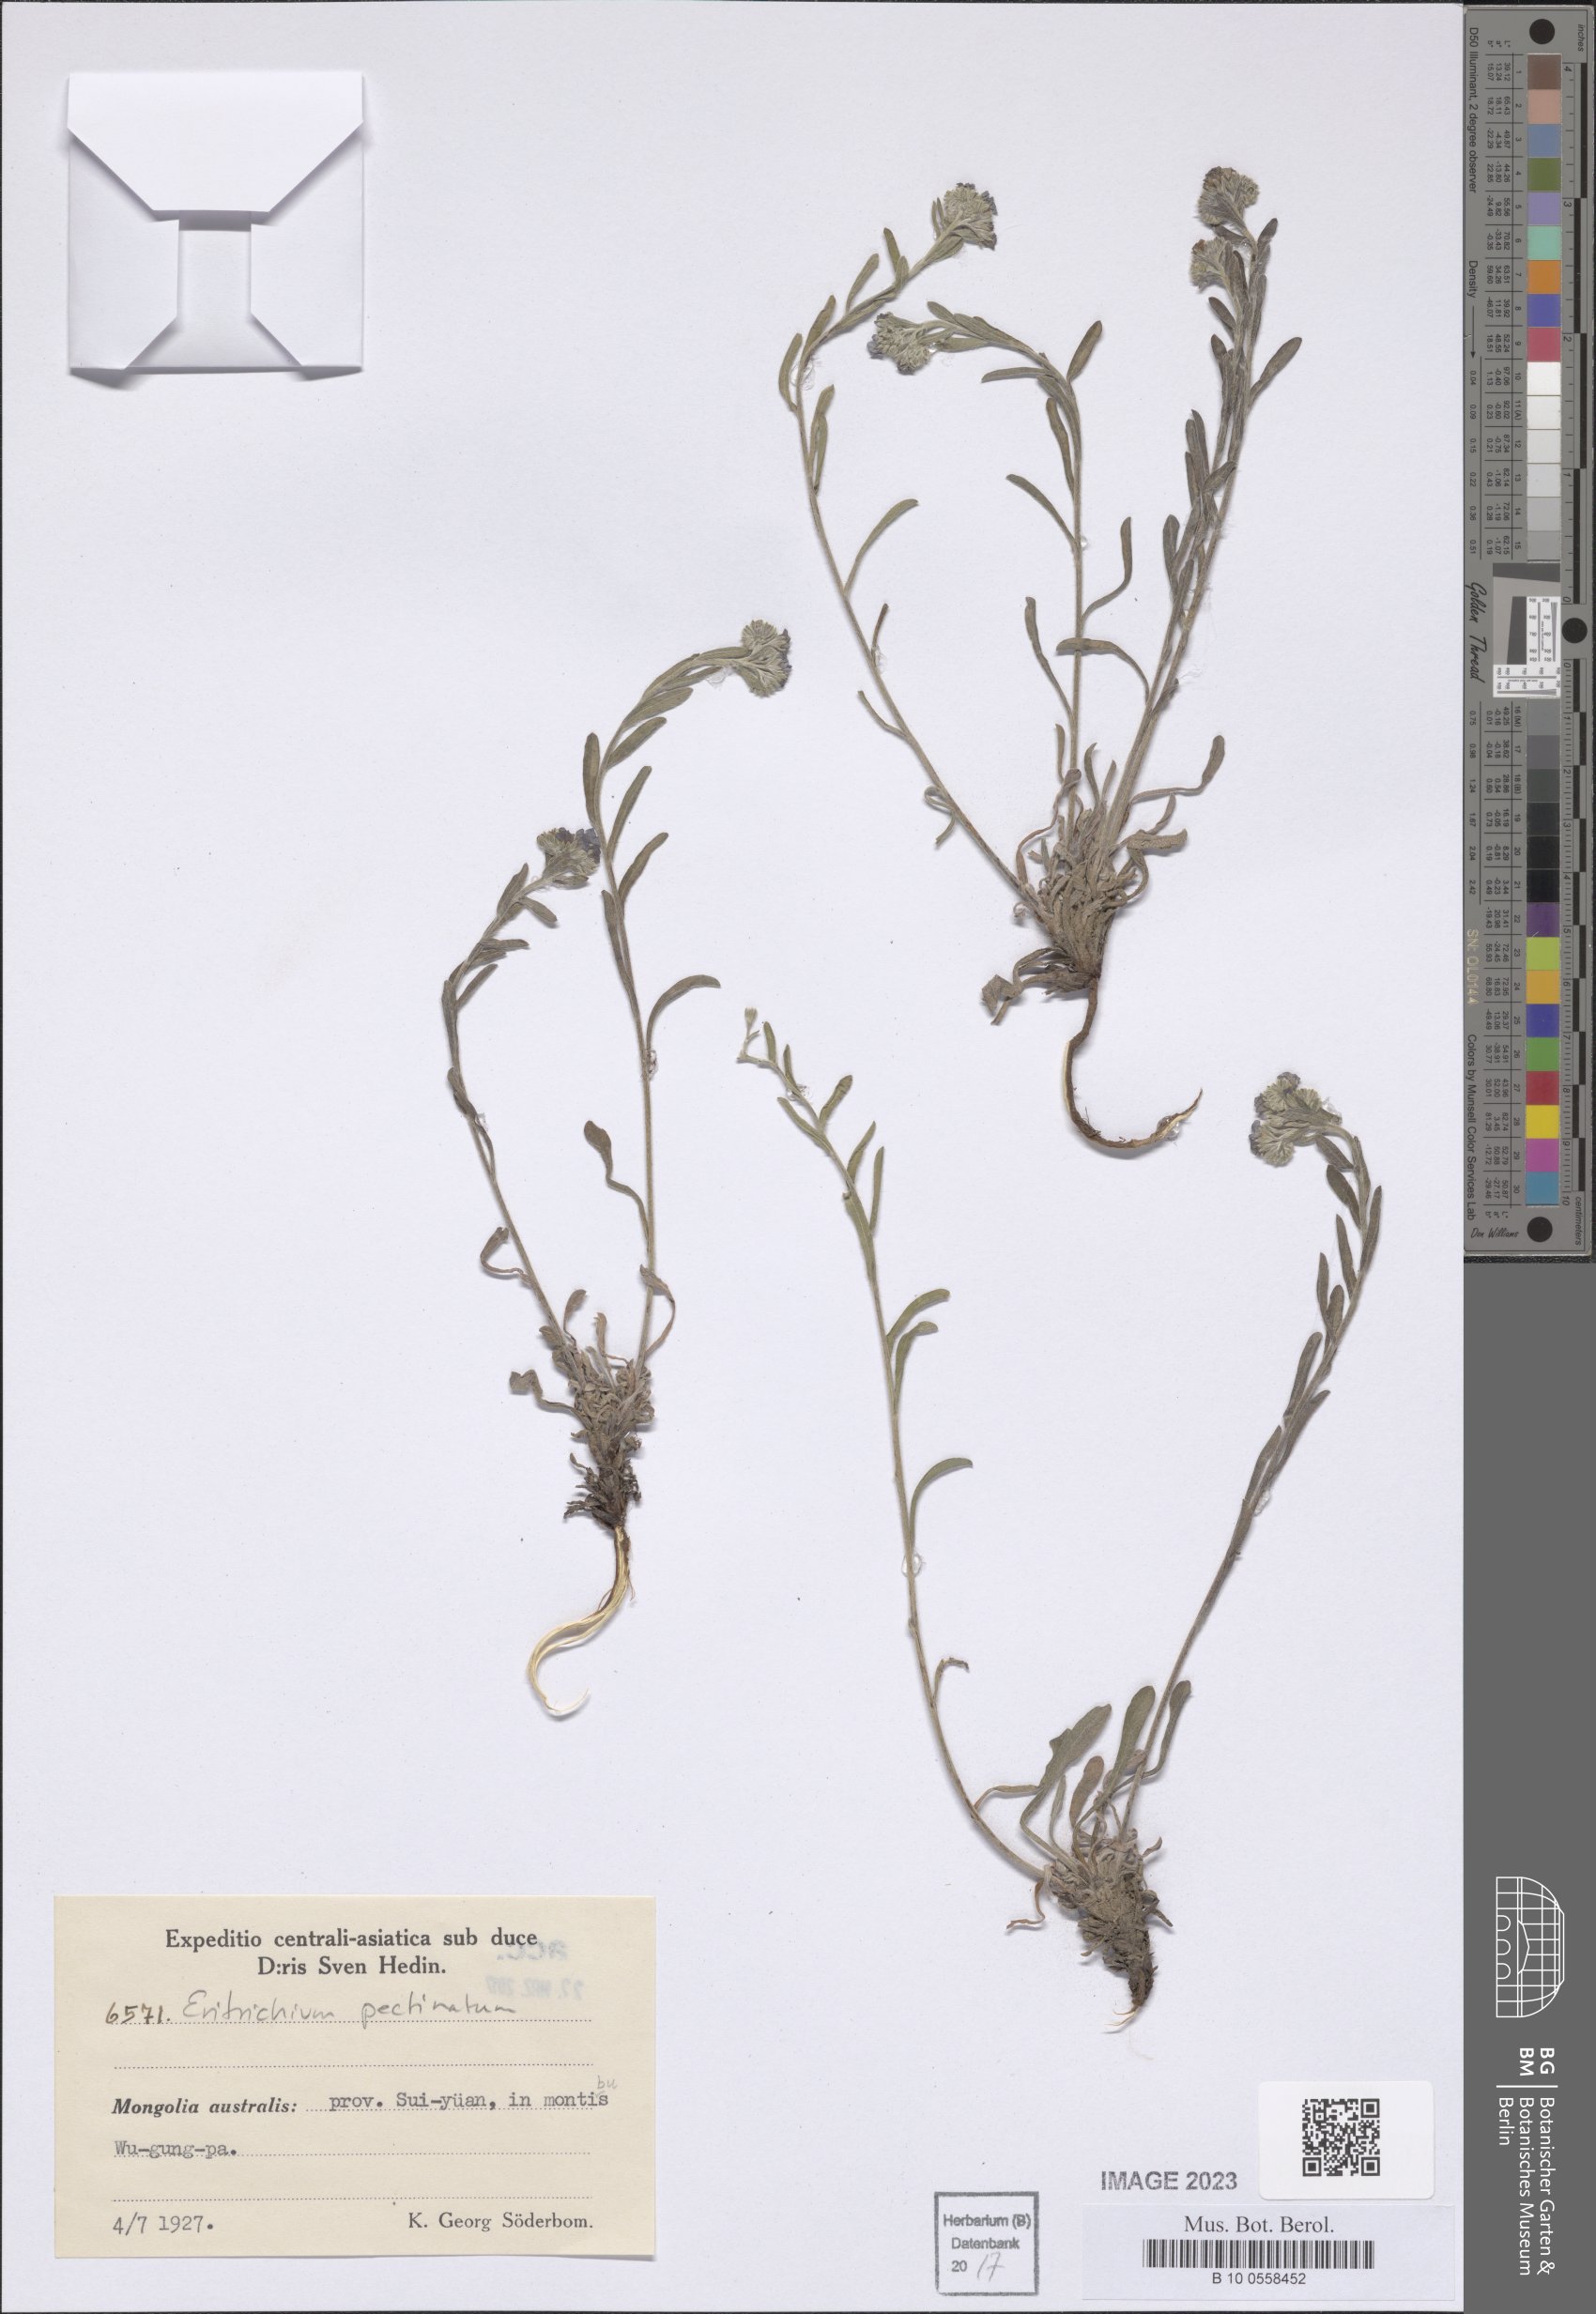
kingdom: Plantae
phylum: Tracheophyta
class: Magnoliopsida
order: Boraginales
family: Boraginaceae
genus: Eritrichium
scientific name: Eritrichium pectinatum
